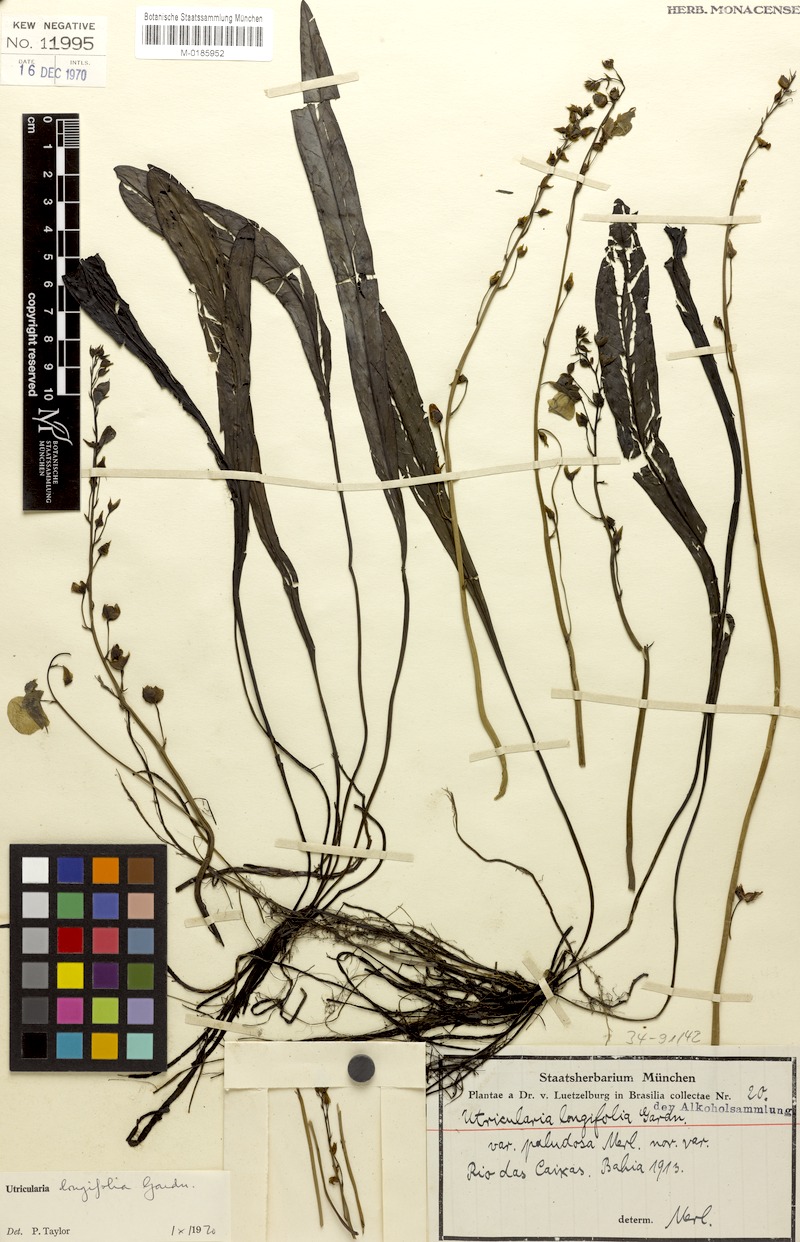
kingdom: Plantae
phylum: Tracheophyta
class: Magnoliopsida
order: Lamiales
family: Lentibulariaceae
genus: Utricularia
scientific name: Utricularia longifolia
